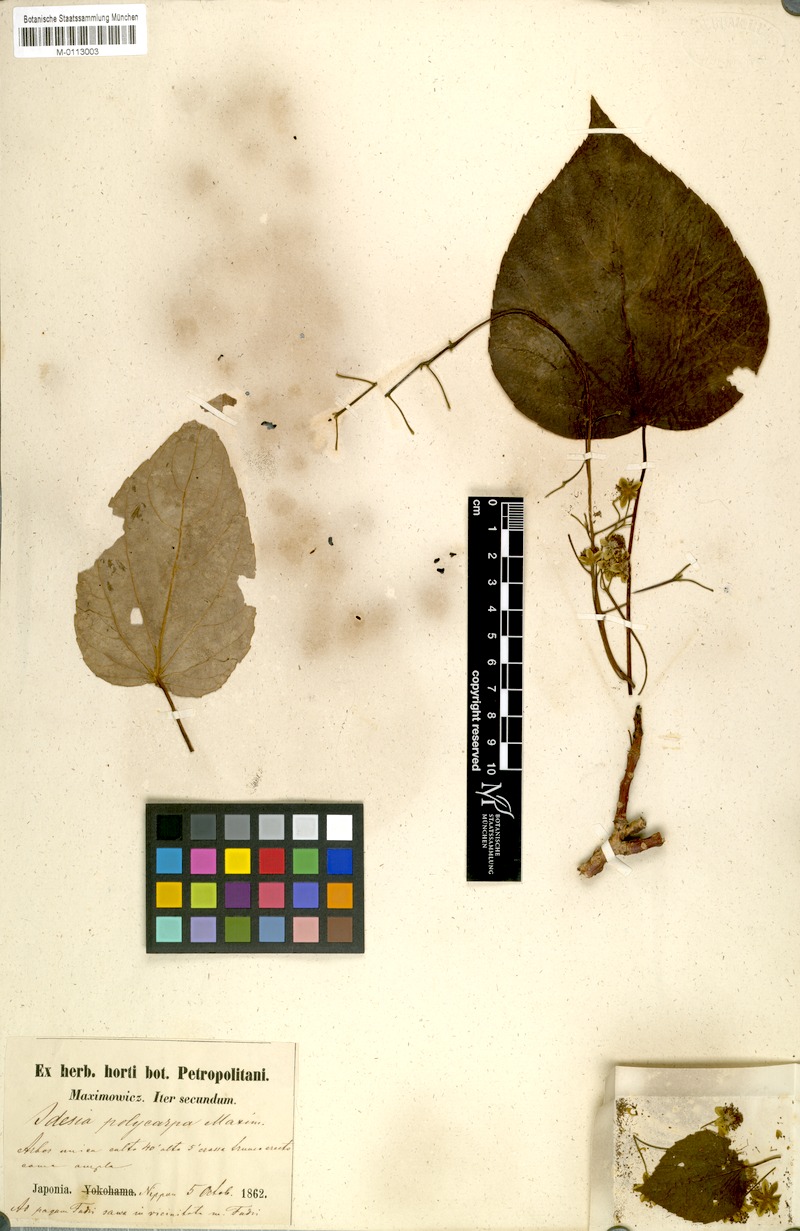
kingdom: Plantae
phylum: Tracheophyta
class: Magnoliopsida
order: Malpighiales
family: Salicaceae
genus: Idesia
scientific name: Idesia polycarpa
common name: Idesia tree
